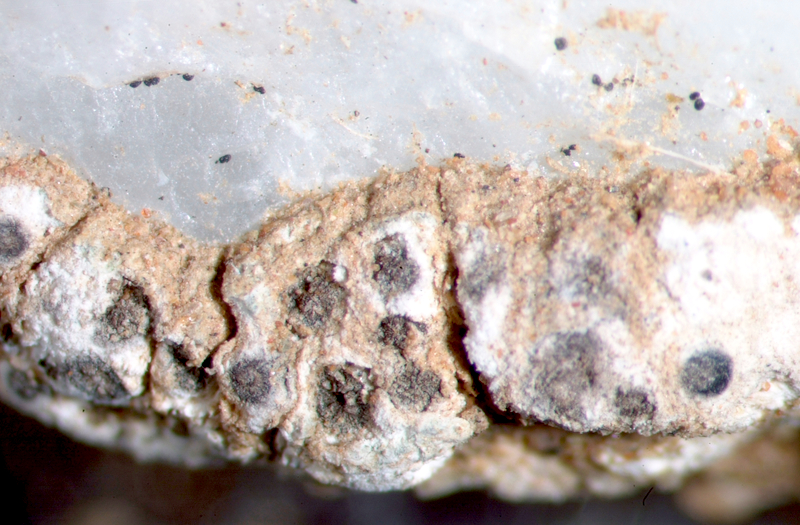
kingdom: Fungi
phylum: Ascomycota
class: Lecanoromycetes
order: Lecideales
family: Lecideaceae
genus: Lecidea
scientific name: Lecidea
